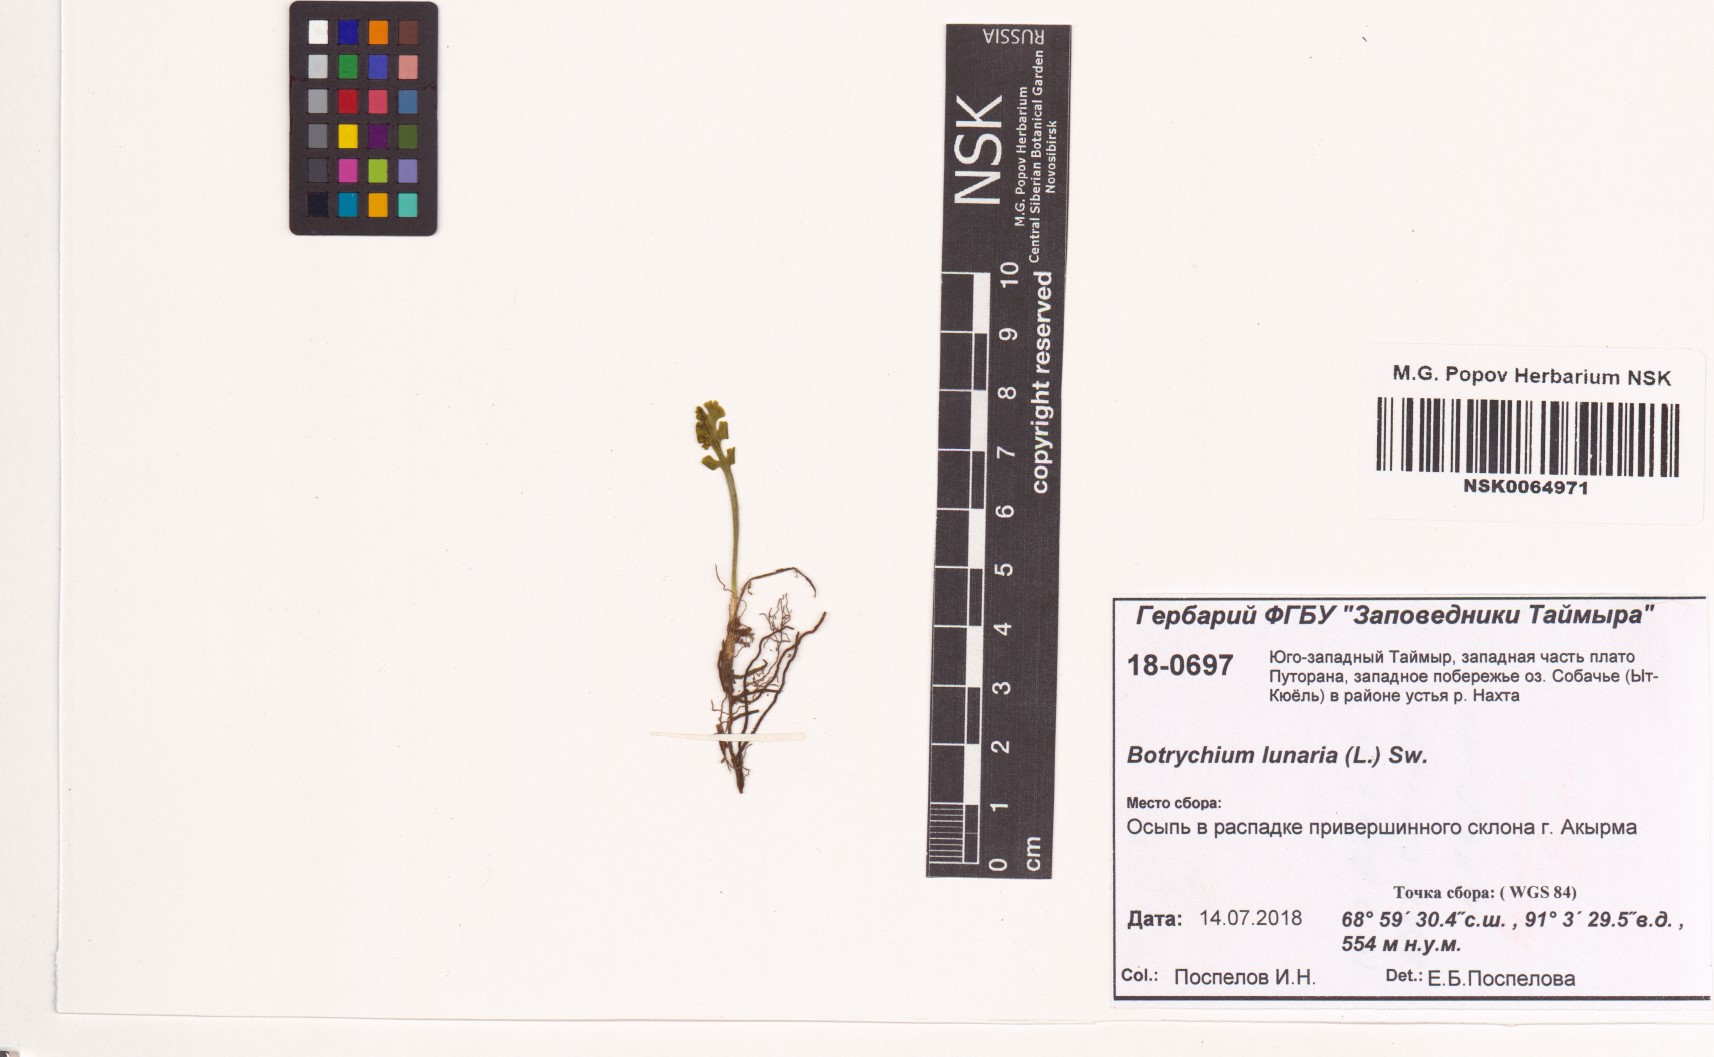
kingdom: Plantae
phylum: Tracheophyta
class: Polypodiopsida
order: Ophioglossales
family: Ophioglossaceae
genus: Botrychium
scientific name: Botrychium lunaria
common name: Moonwort
